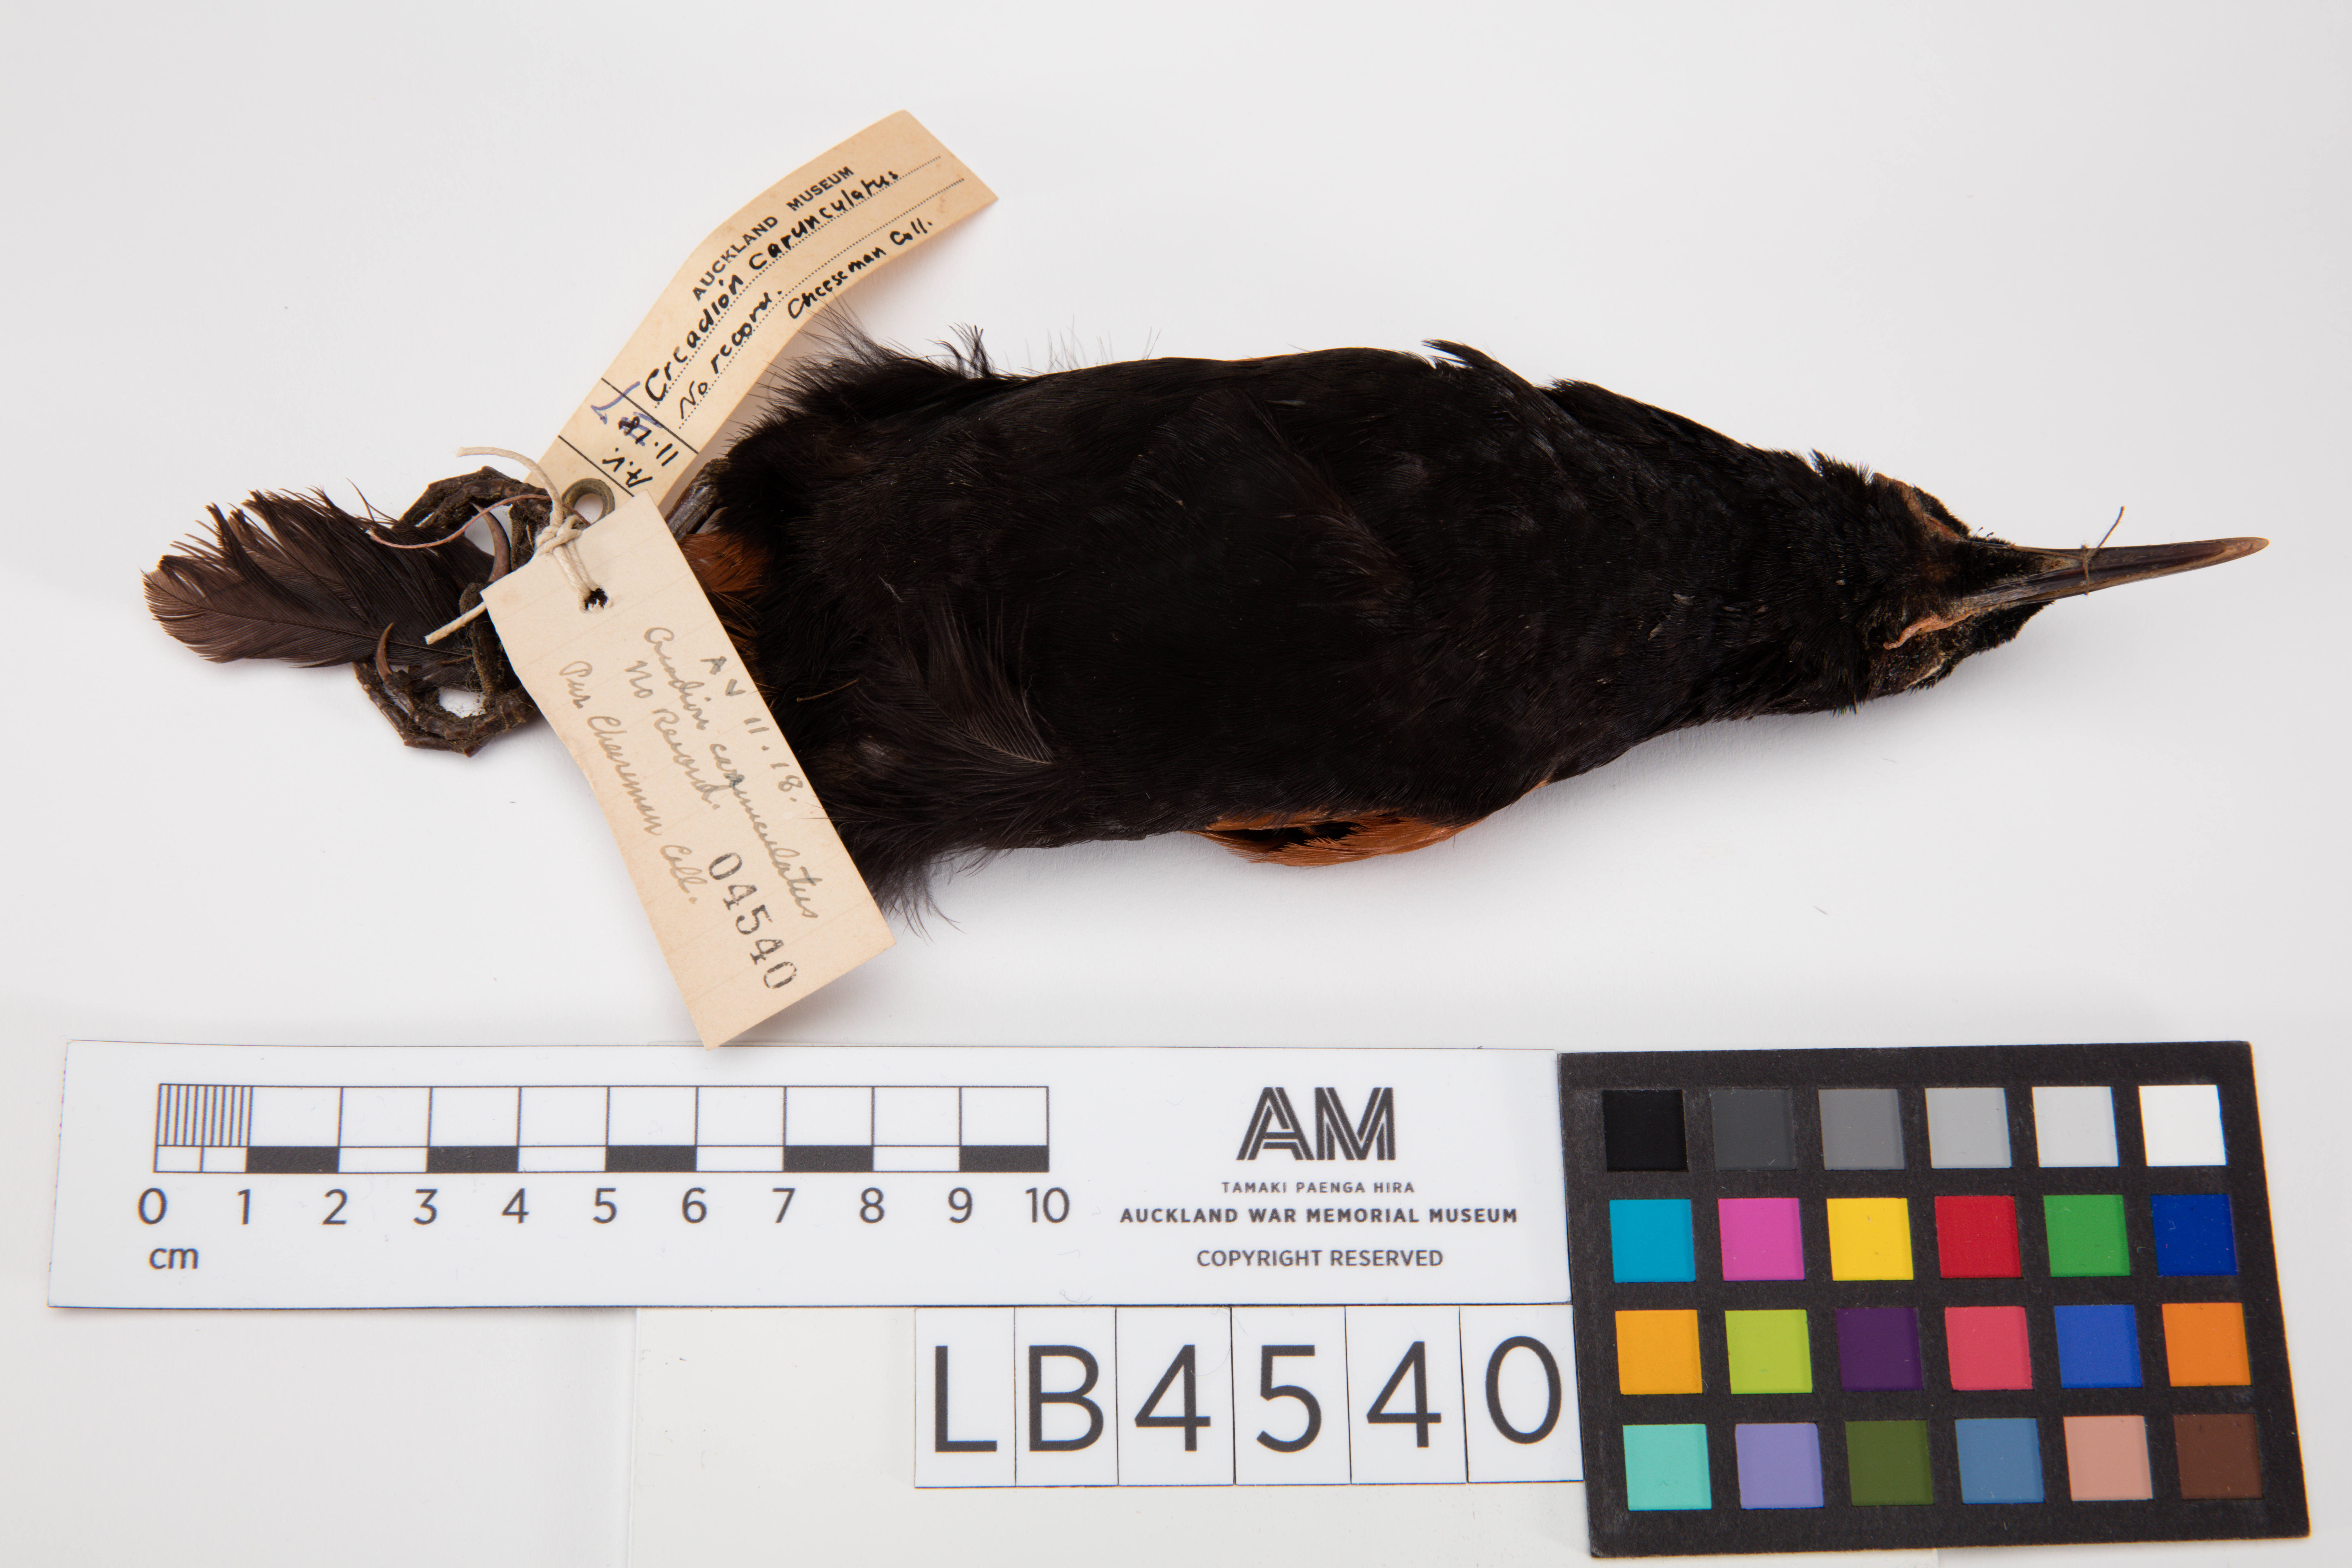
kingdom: Animalia
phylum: Chordata
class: Aves
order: Passeriformes
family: Callaeatidae
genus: Philesturnus
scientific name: Philesturnus carunculatus
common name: South island saddleback
